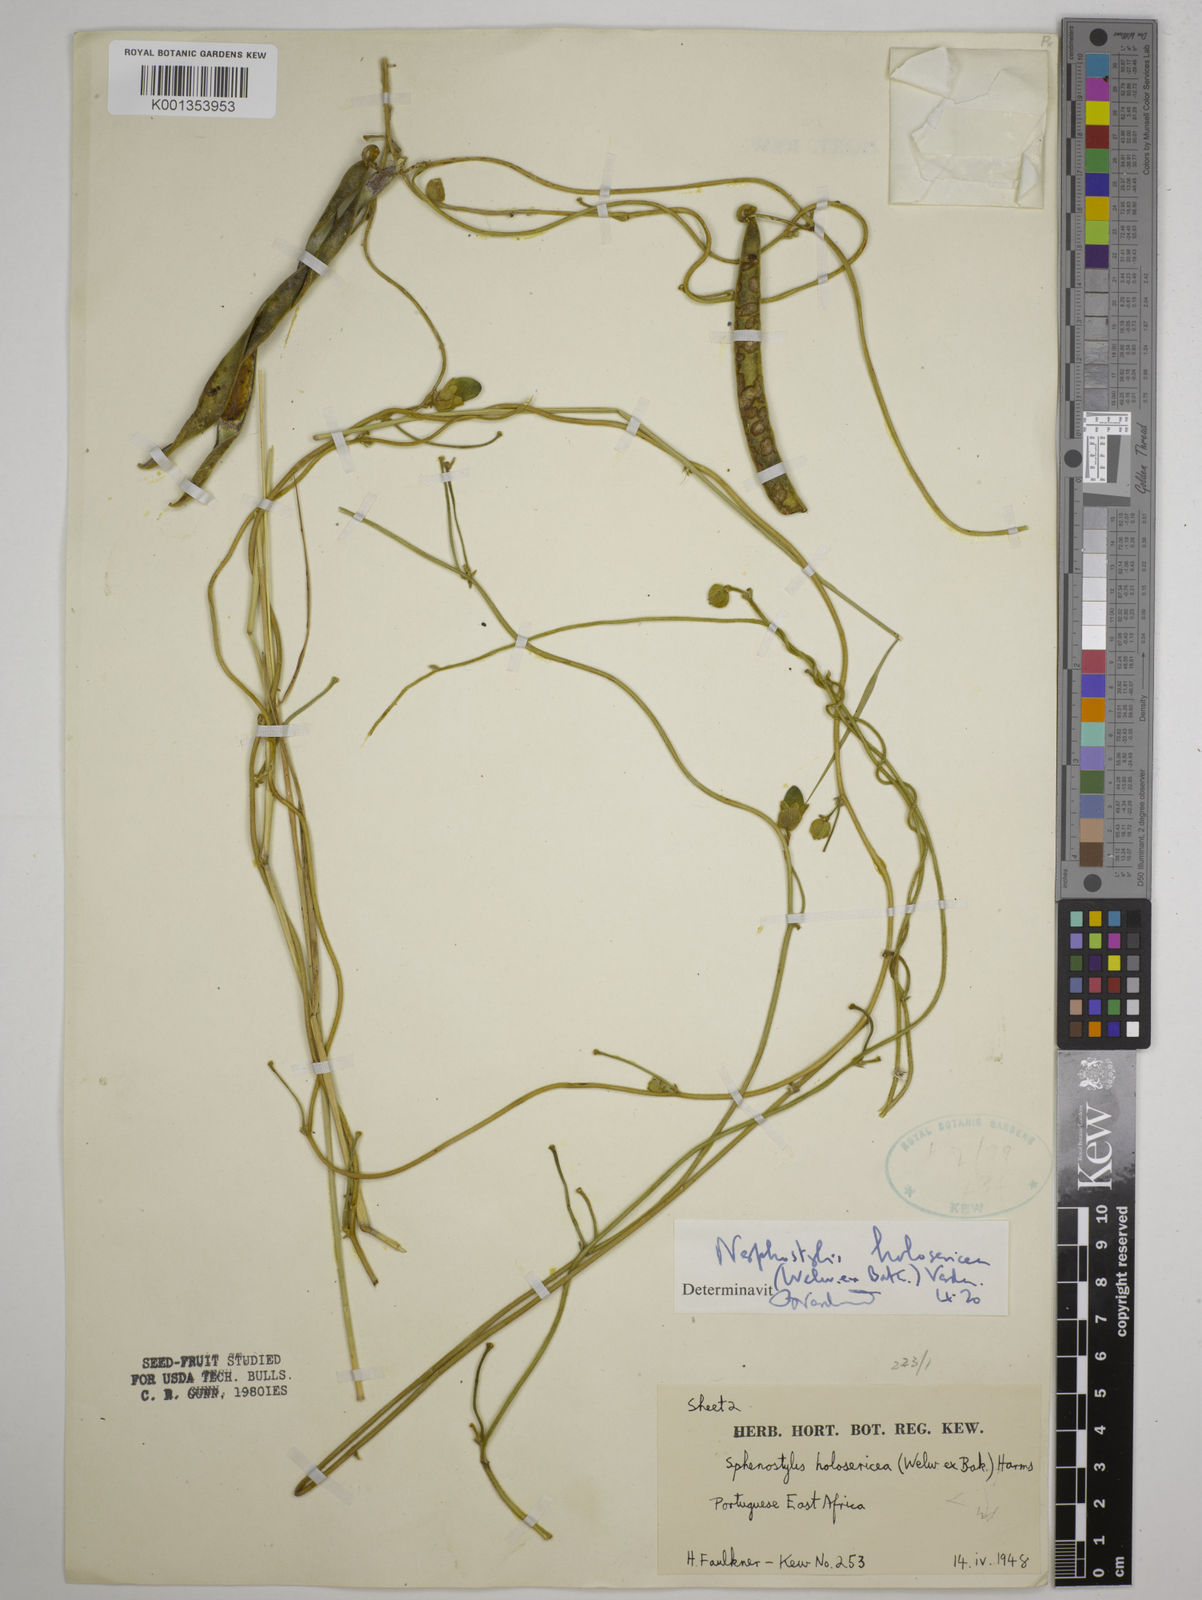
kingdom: Plantae
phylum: Tracheophyta
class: Magnoliopsida
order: Fabales
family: Fabaceae
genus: Nesphostylis
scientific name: Nesphostylis holosericea
